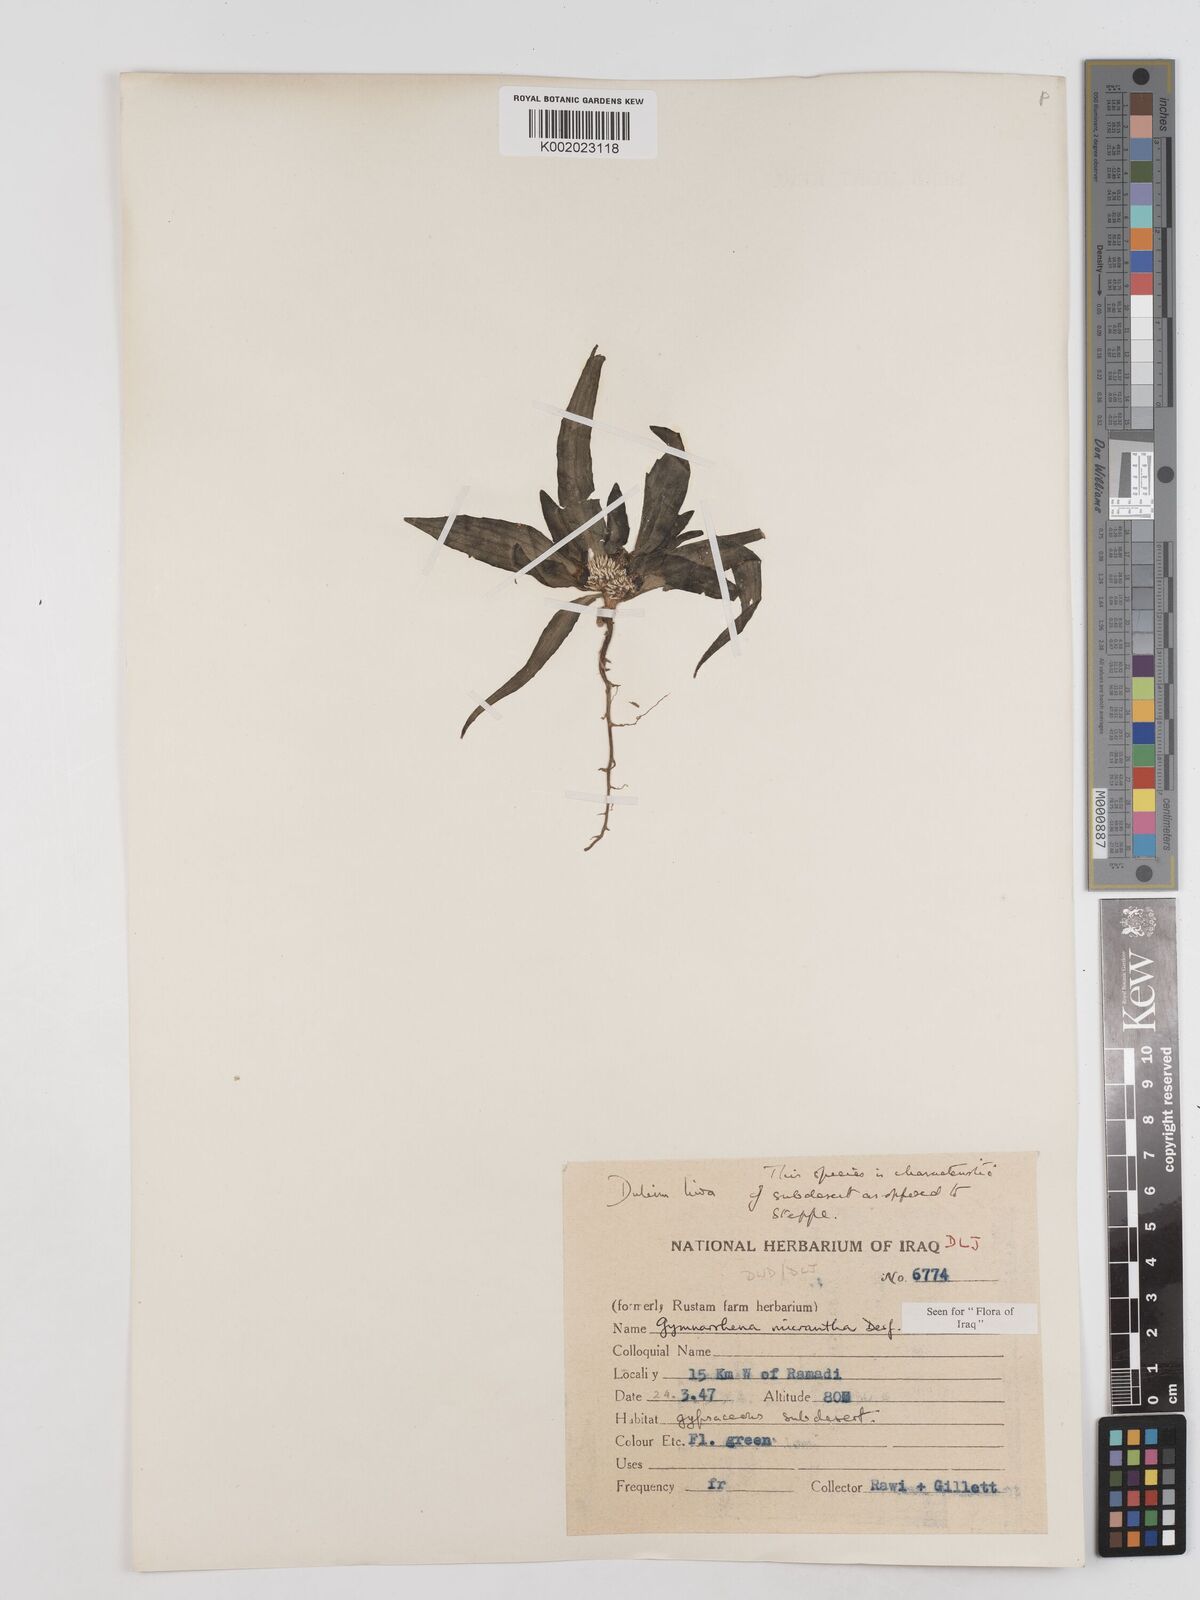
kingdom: Plantae
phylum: Tracheophyta
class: Magnoliopsida
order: Asterales
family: Asteraceae
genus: Gymnarrhena
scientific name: Gymnarrhena micrantha
